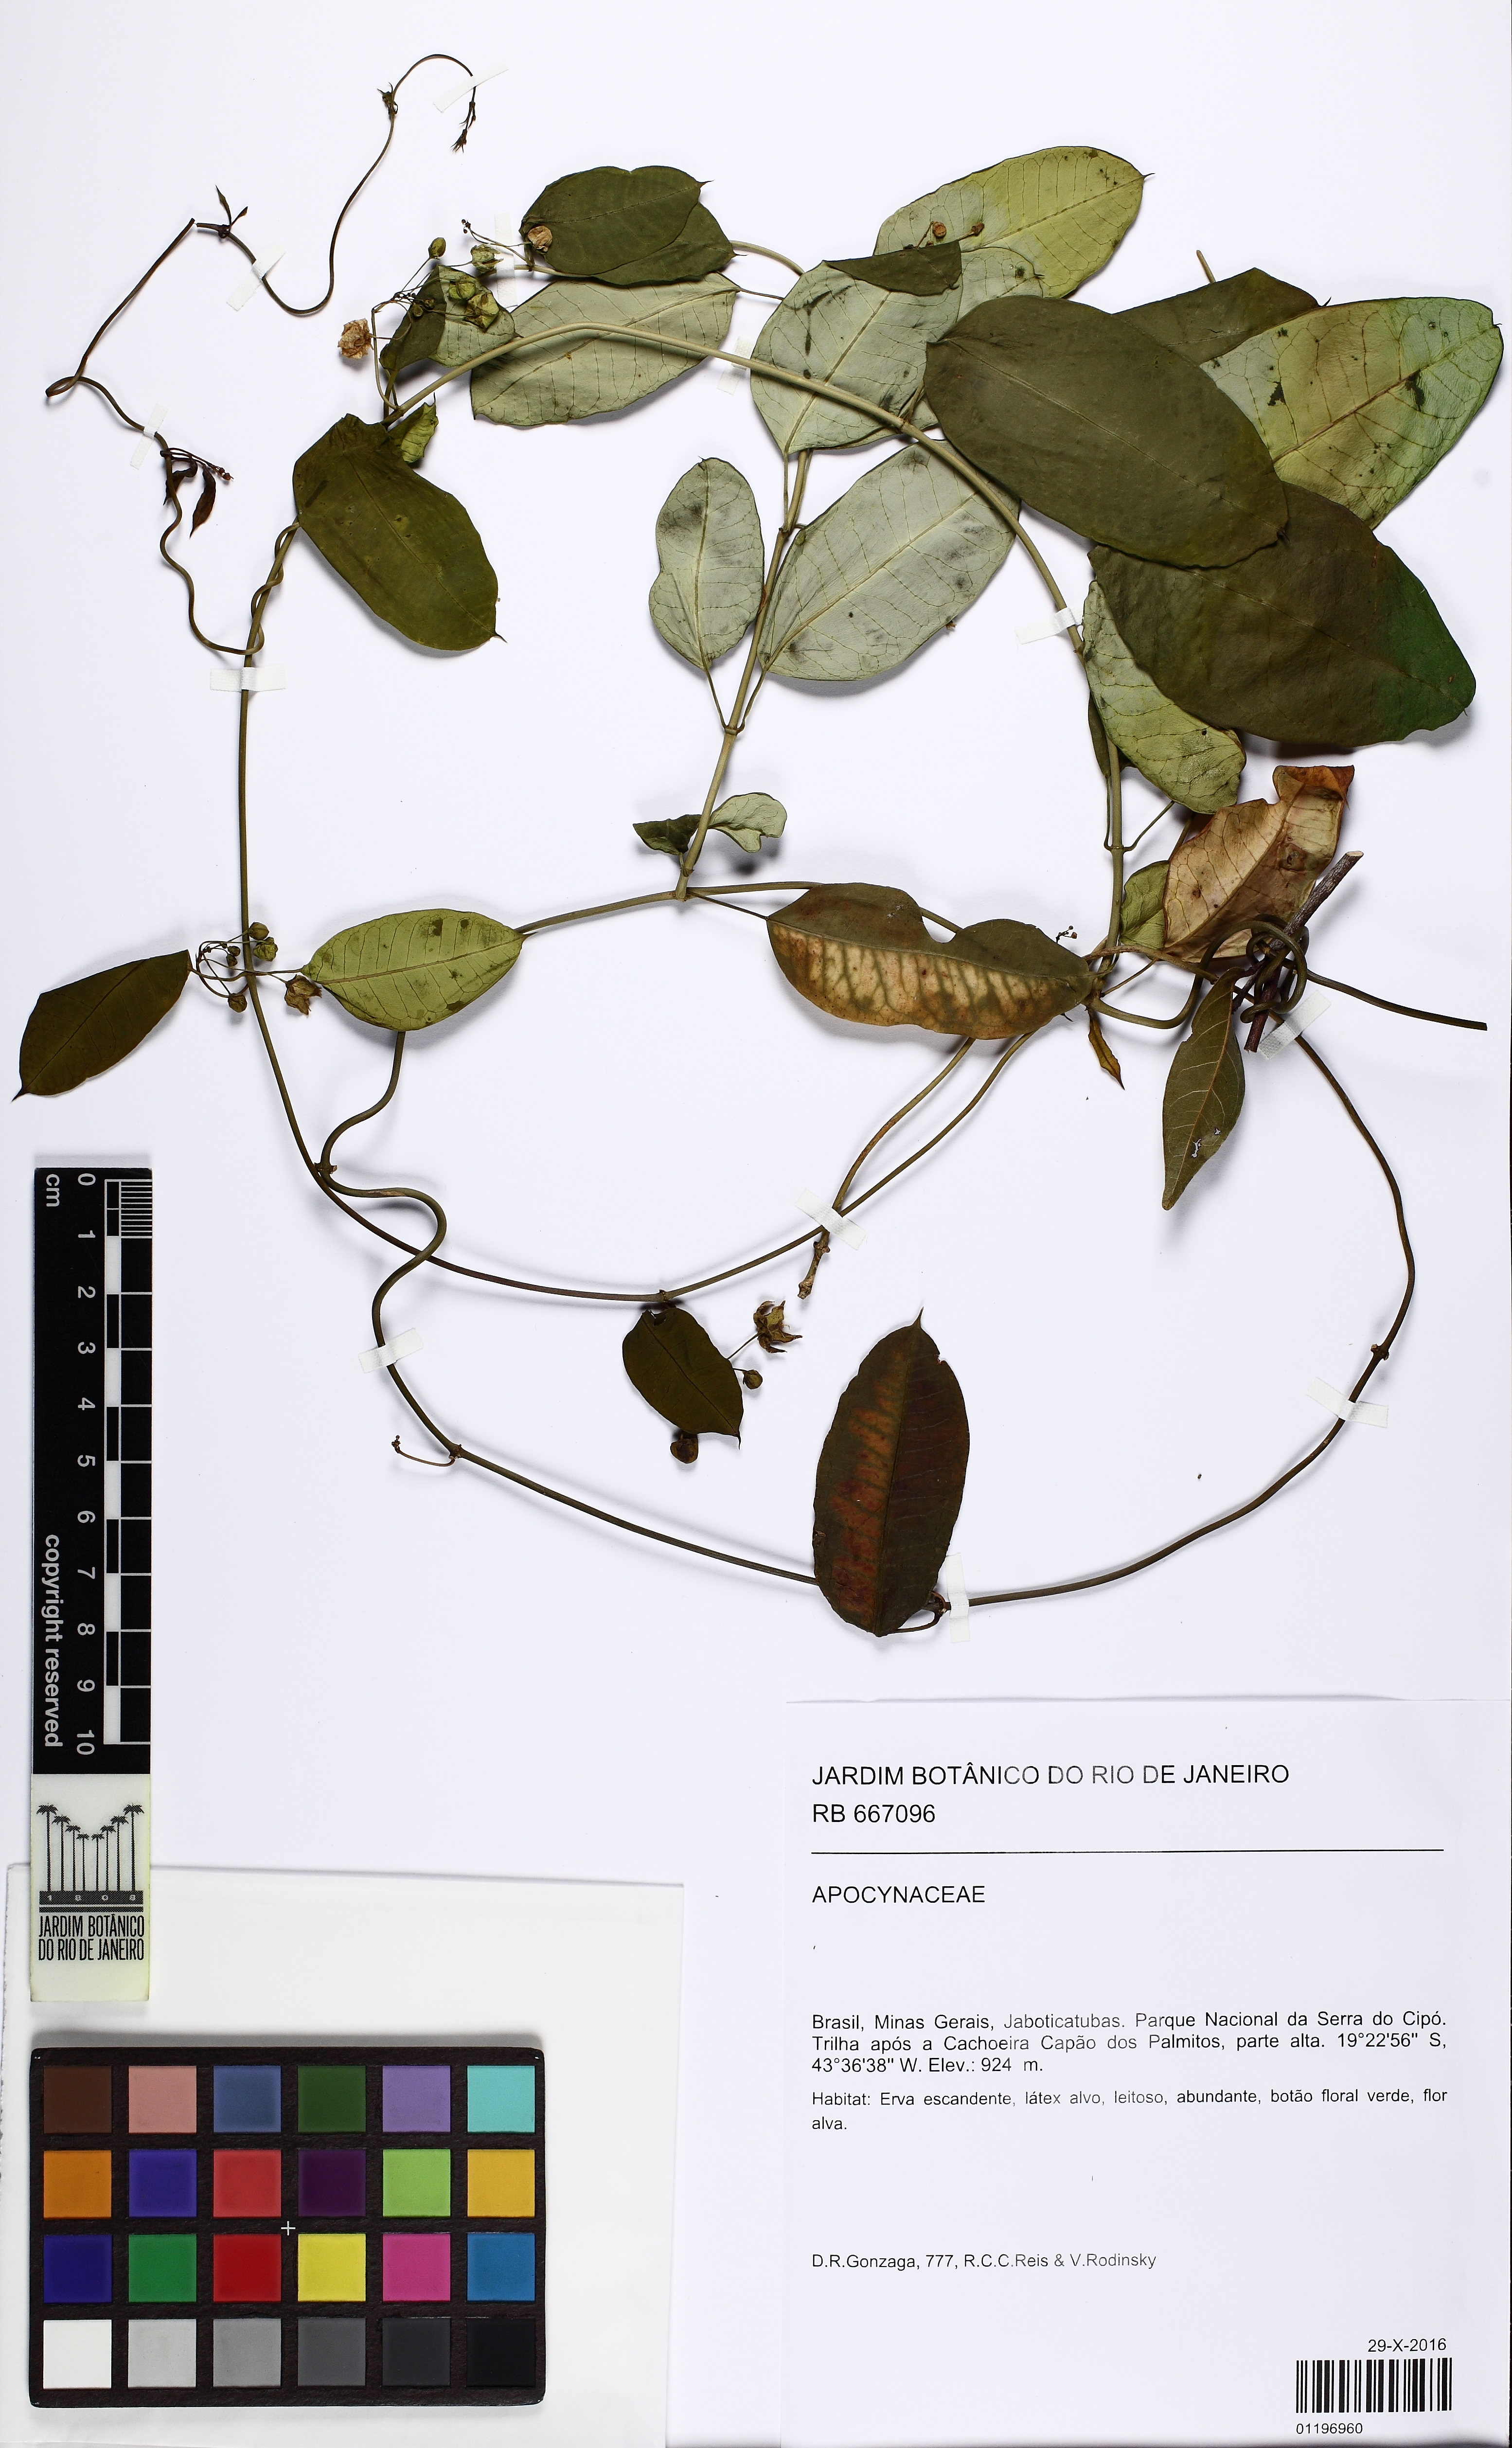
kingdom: Plantae
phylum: Tracheophyta
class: Magnoliopsida
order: Gentianales
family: Apocynaceae
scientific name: Apocynaceae
